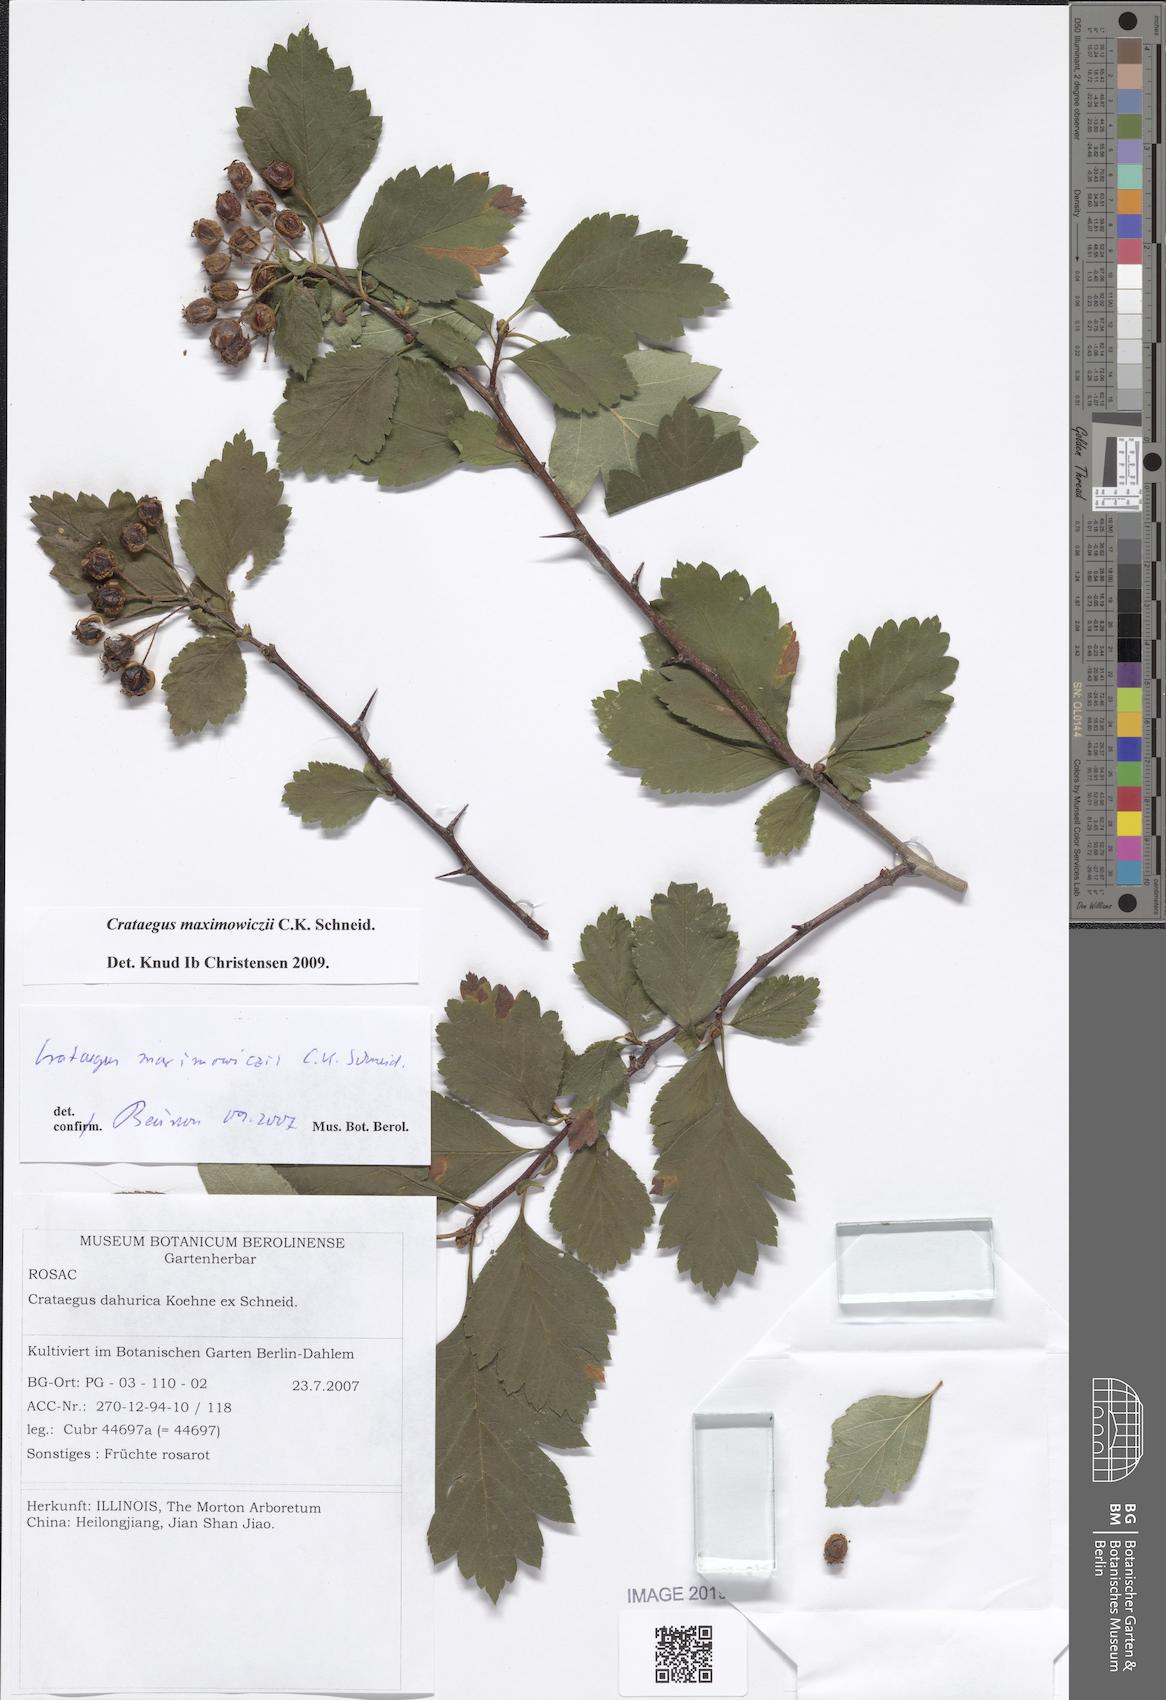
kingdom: Plantae
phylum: Tracheophyta
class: Magnoliopsida
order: Rosales
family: Rosaceae
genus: Crataegus
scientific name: Crataegus maximowiczii
